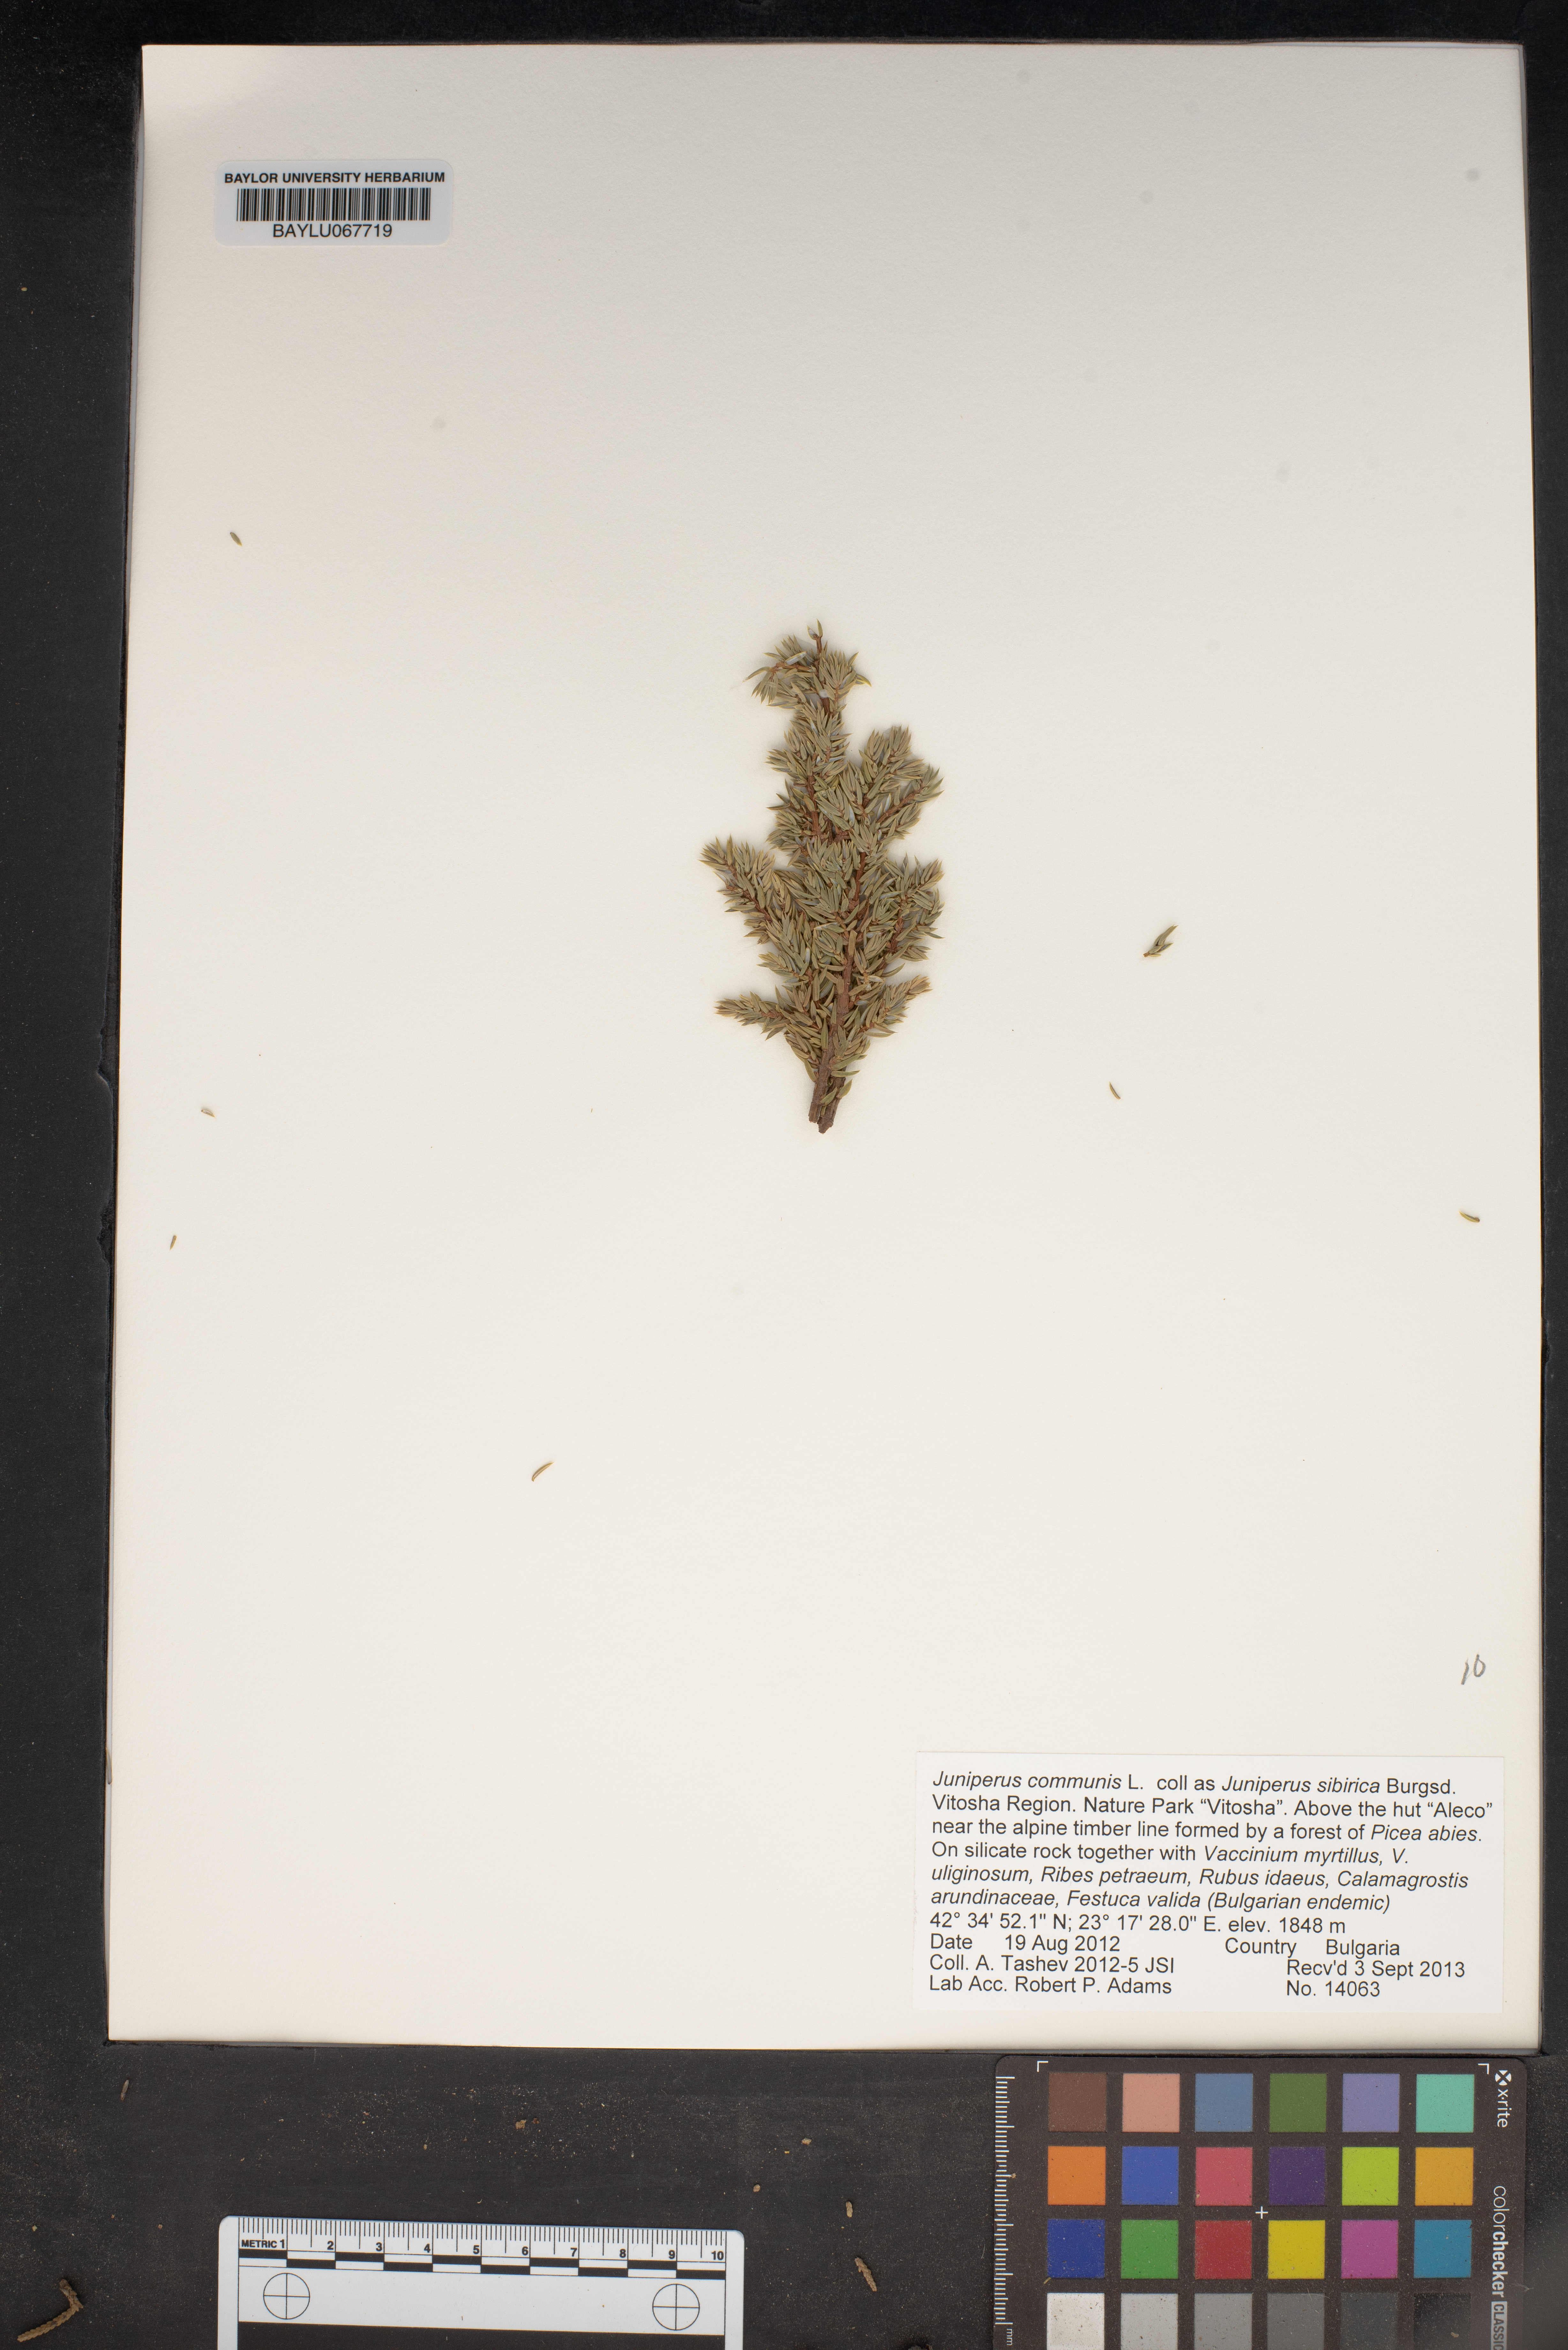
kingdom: Plantae
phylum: Tracheophyta
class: Pinopsida
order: Pinales
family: Cupressaceae
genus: Juniperus
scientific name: Juniperus communis
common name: Common juniper
